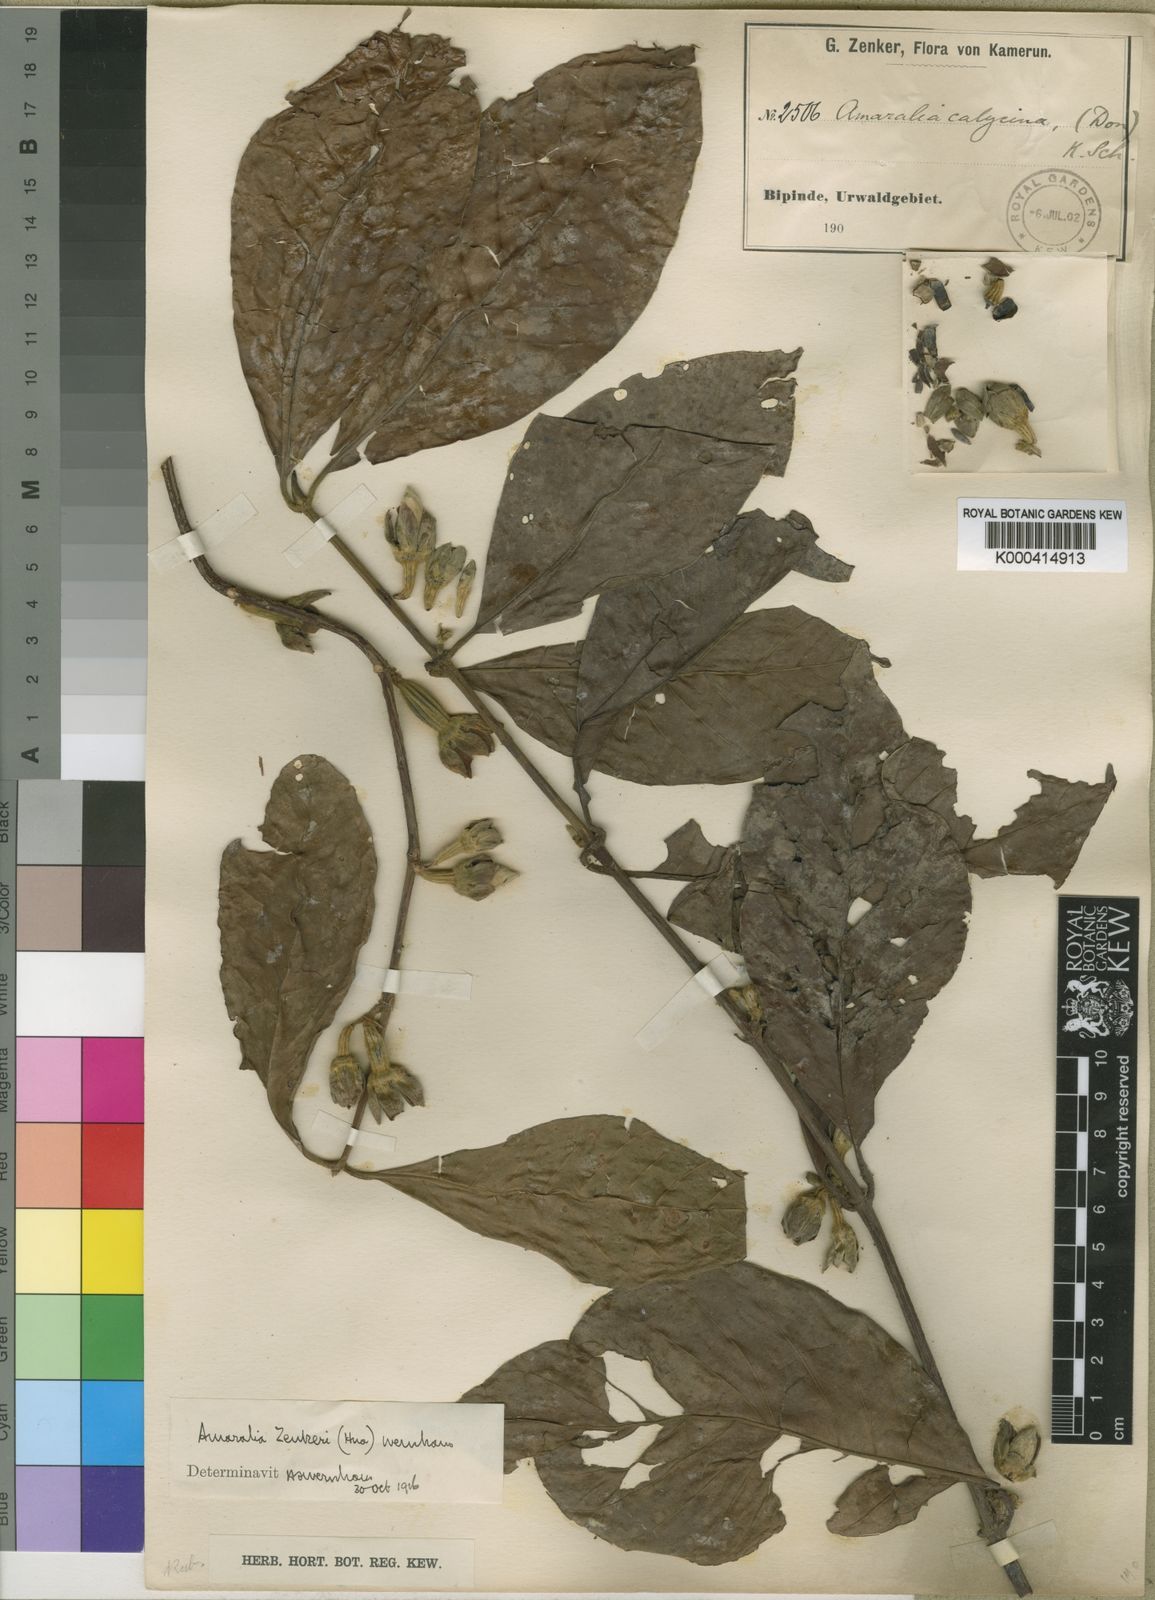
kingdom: Plantae
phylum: Tracheophyta
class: Magnoliopsida
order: Gentianales
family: Rubiaceae
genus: Sherbournia
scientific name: Sherbournia zenkeri
